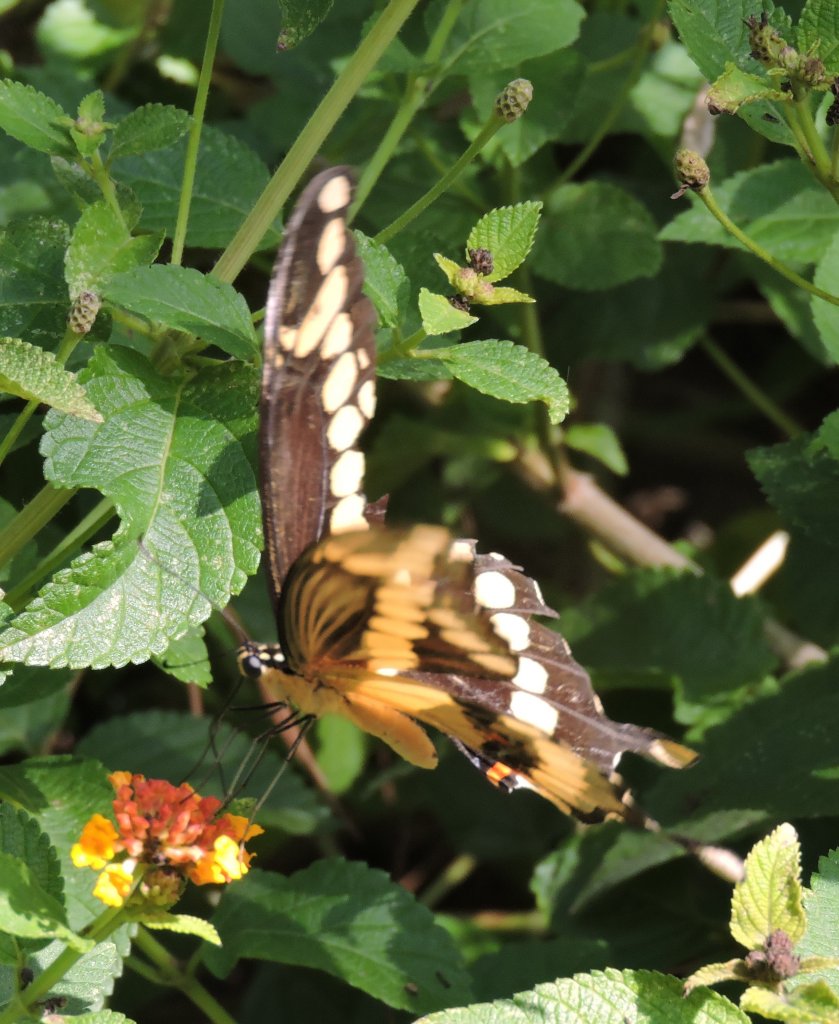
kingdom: Animalia
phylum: Arthropoda
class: Insecta
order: Lepidoptera
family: Papilionidae
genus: Papilio
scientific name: Papilio cresphontes
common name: Eastern Giant Swallowtail
